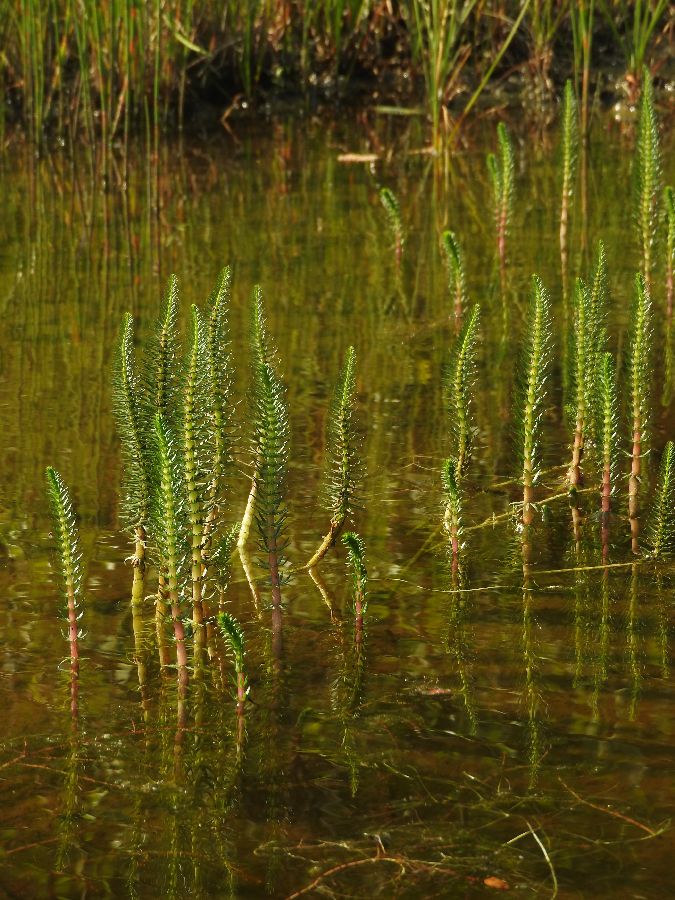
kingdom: Plantae
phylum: Tracheophyta
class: Magnoliopsida
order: Lamiales
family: Plantaginaceae
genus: Hippuris
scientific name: Hippuris vulgaris
